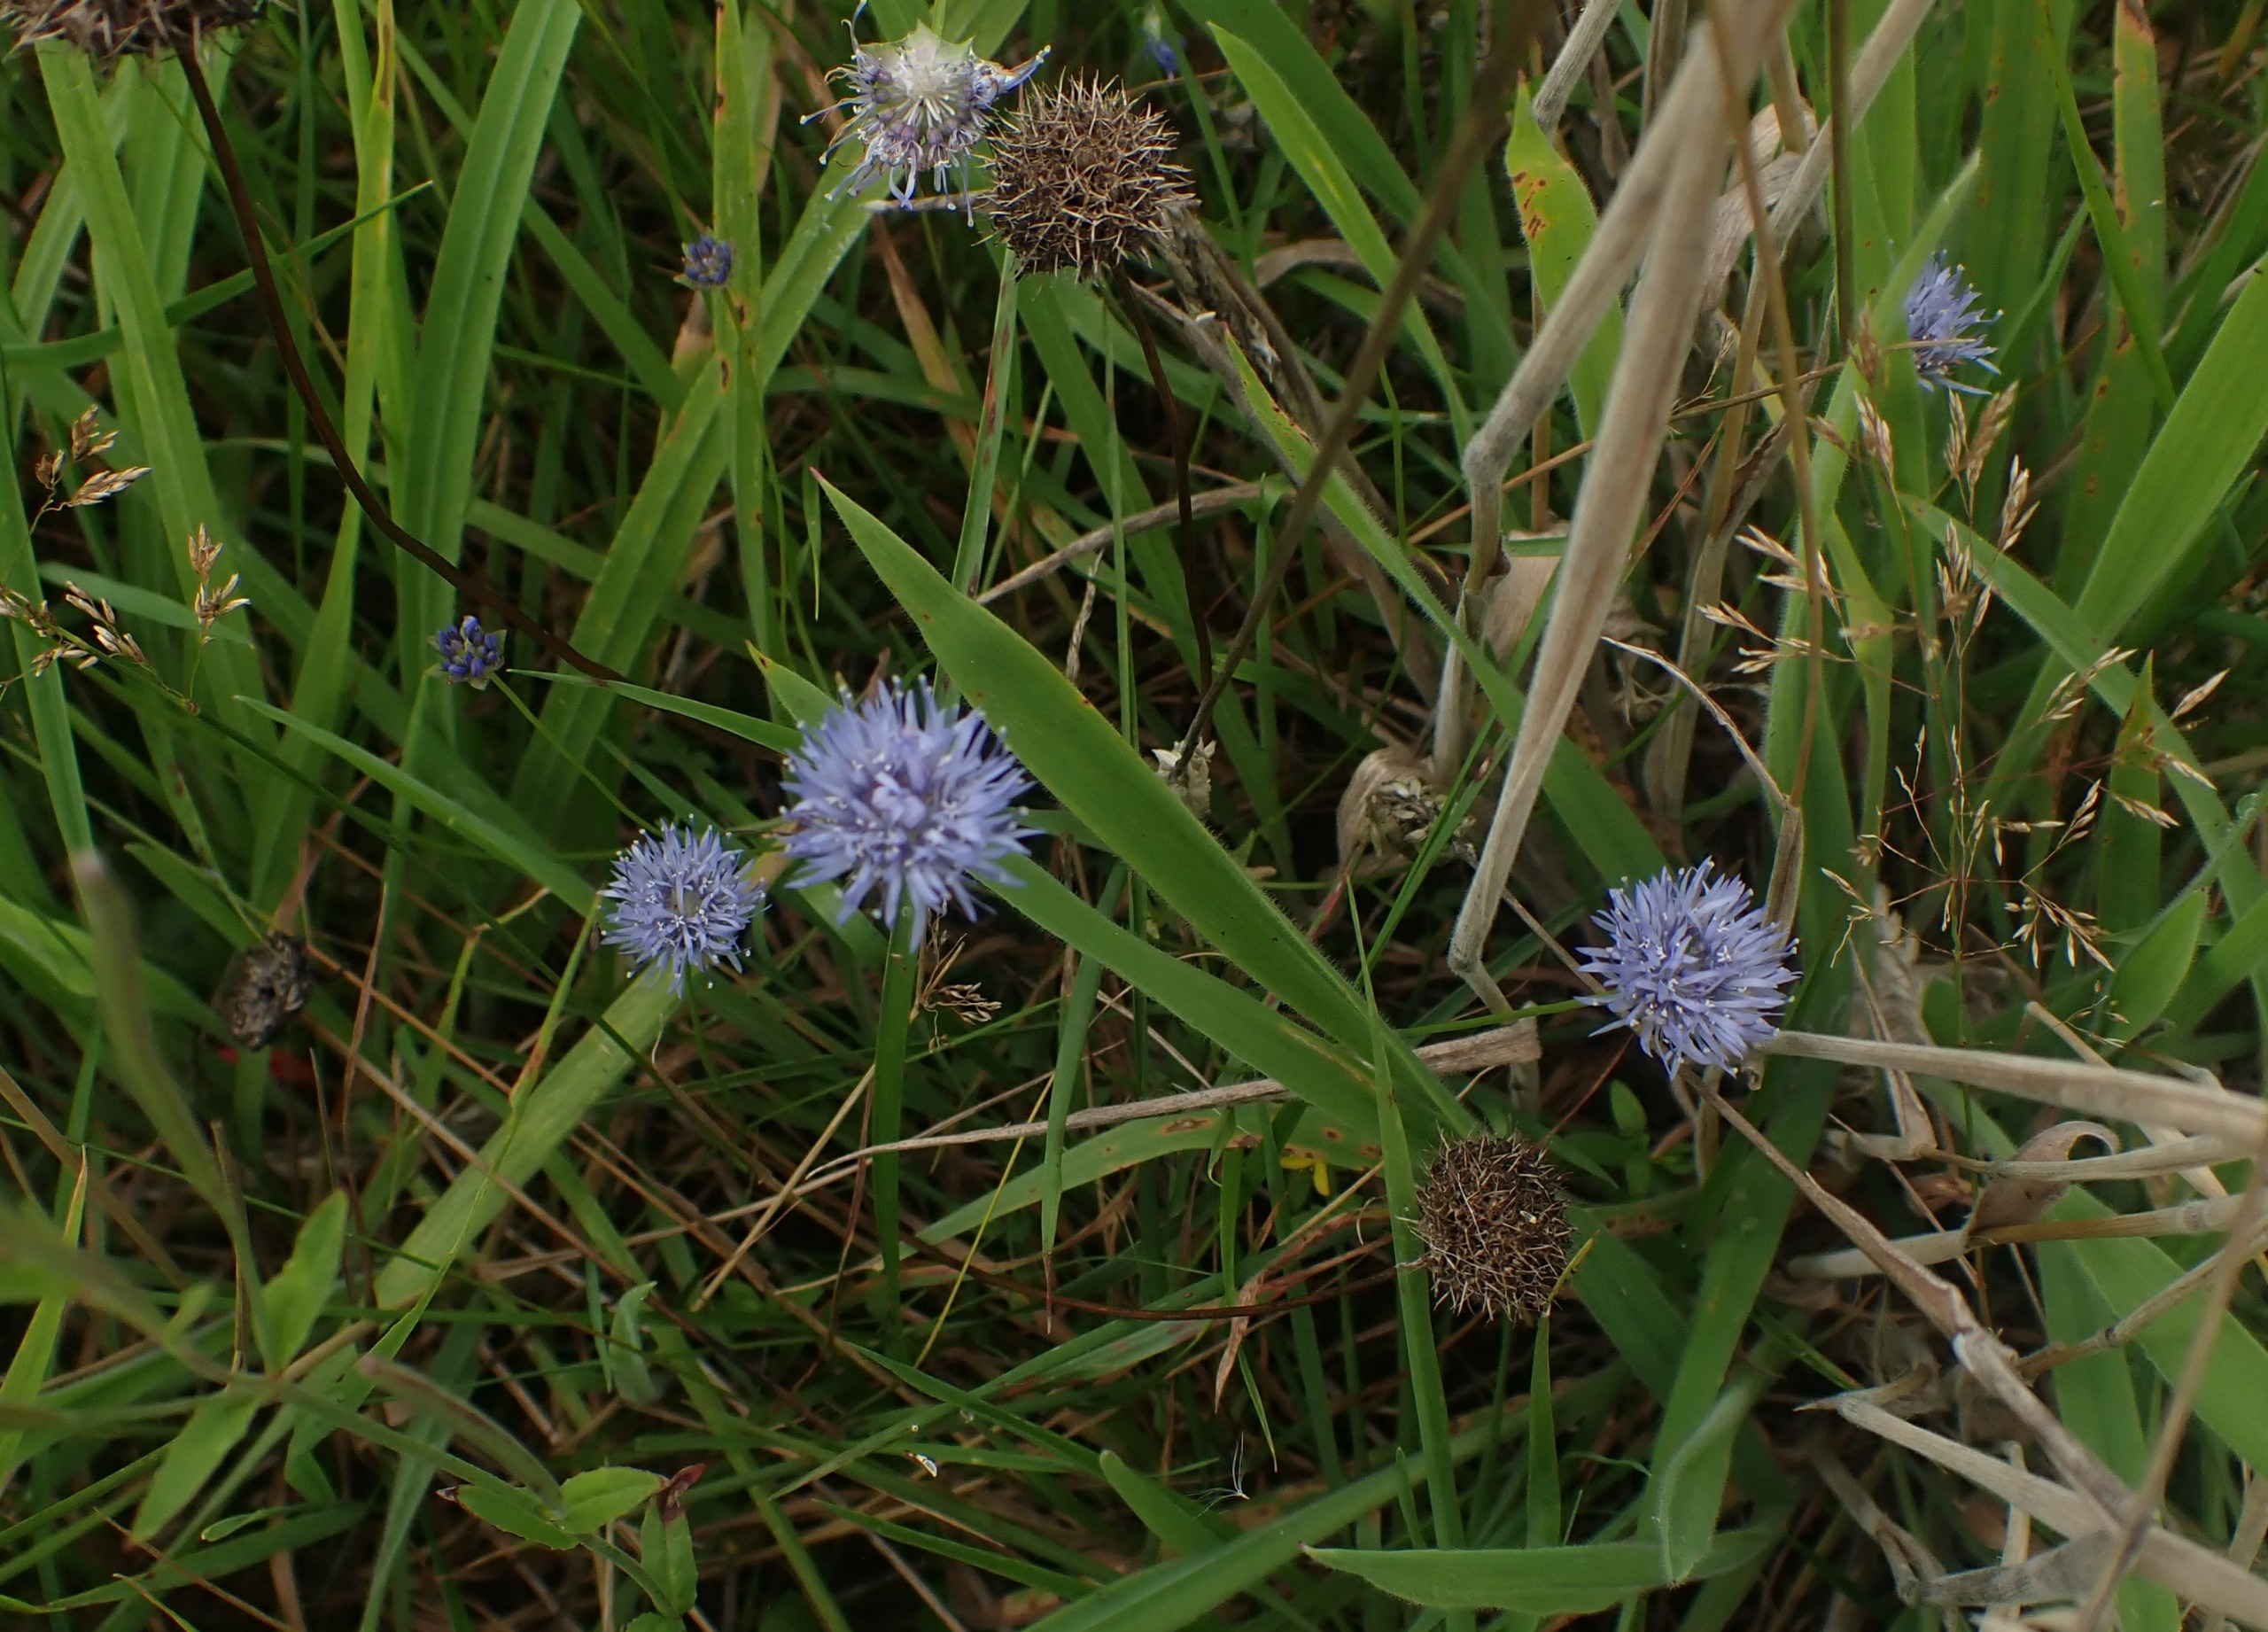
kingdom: Plantae
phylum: Tracheophyta
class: Magnoliopsida
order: Asterales
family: Campanulaceae
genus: Jasione
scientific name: Jasione montana
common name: Blåmunke
